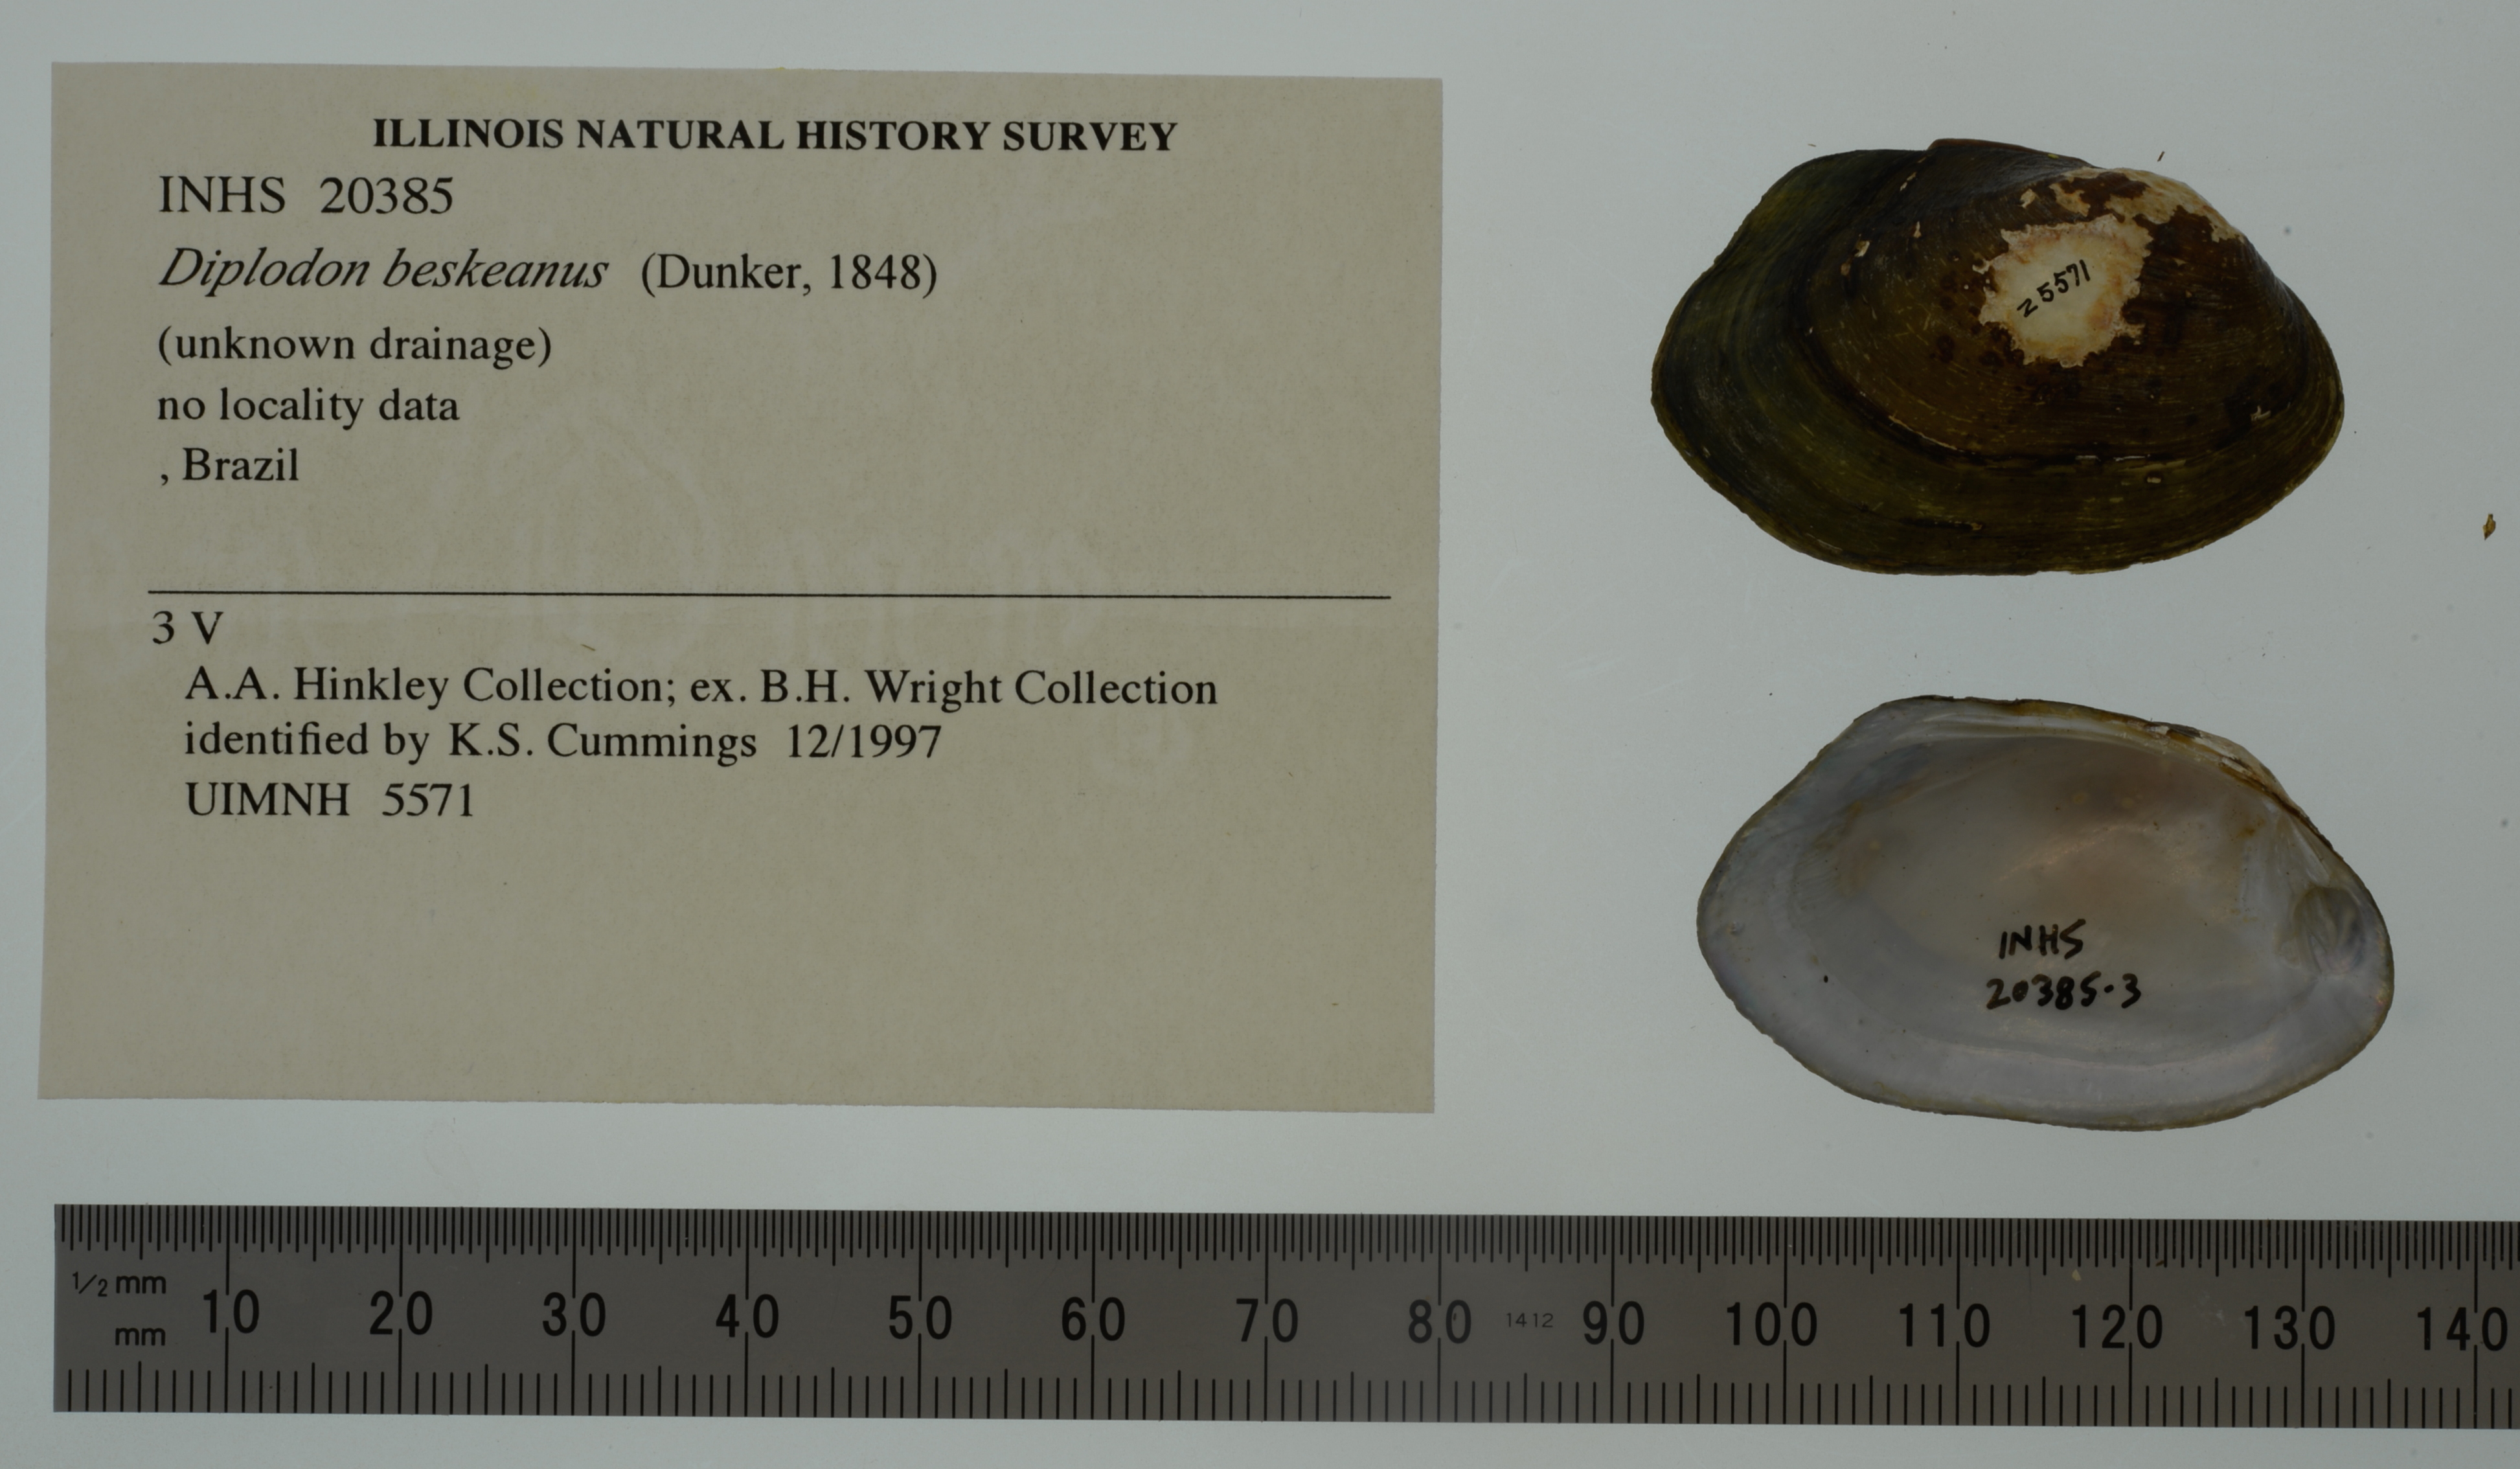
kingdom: Animalia
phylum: Mollusca
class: Bivalvia
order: Unionida
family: Hyriidae
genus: Diplodon
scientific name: Diplodon ellipticus
